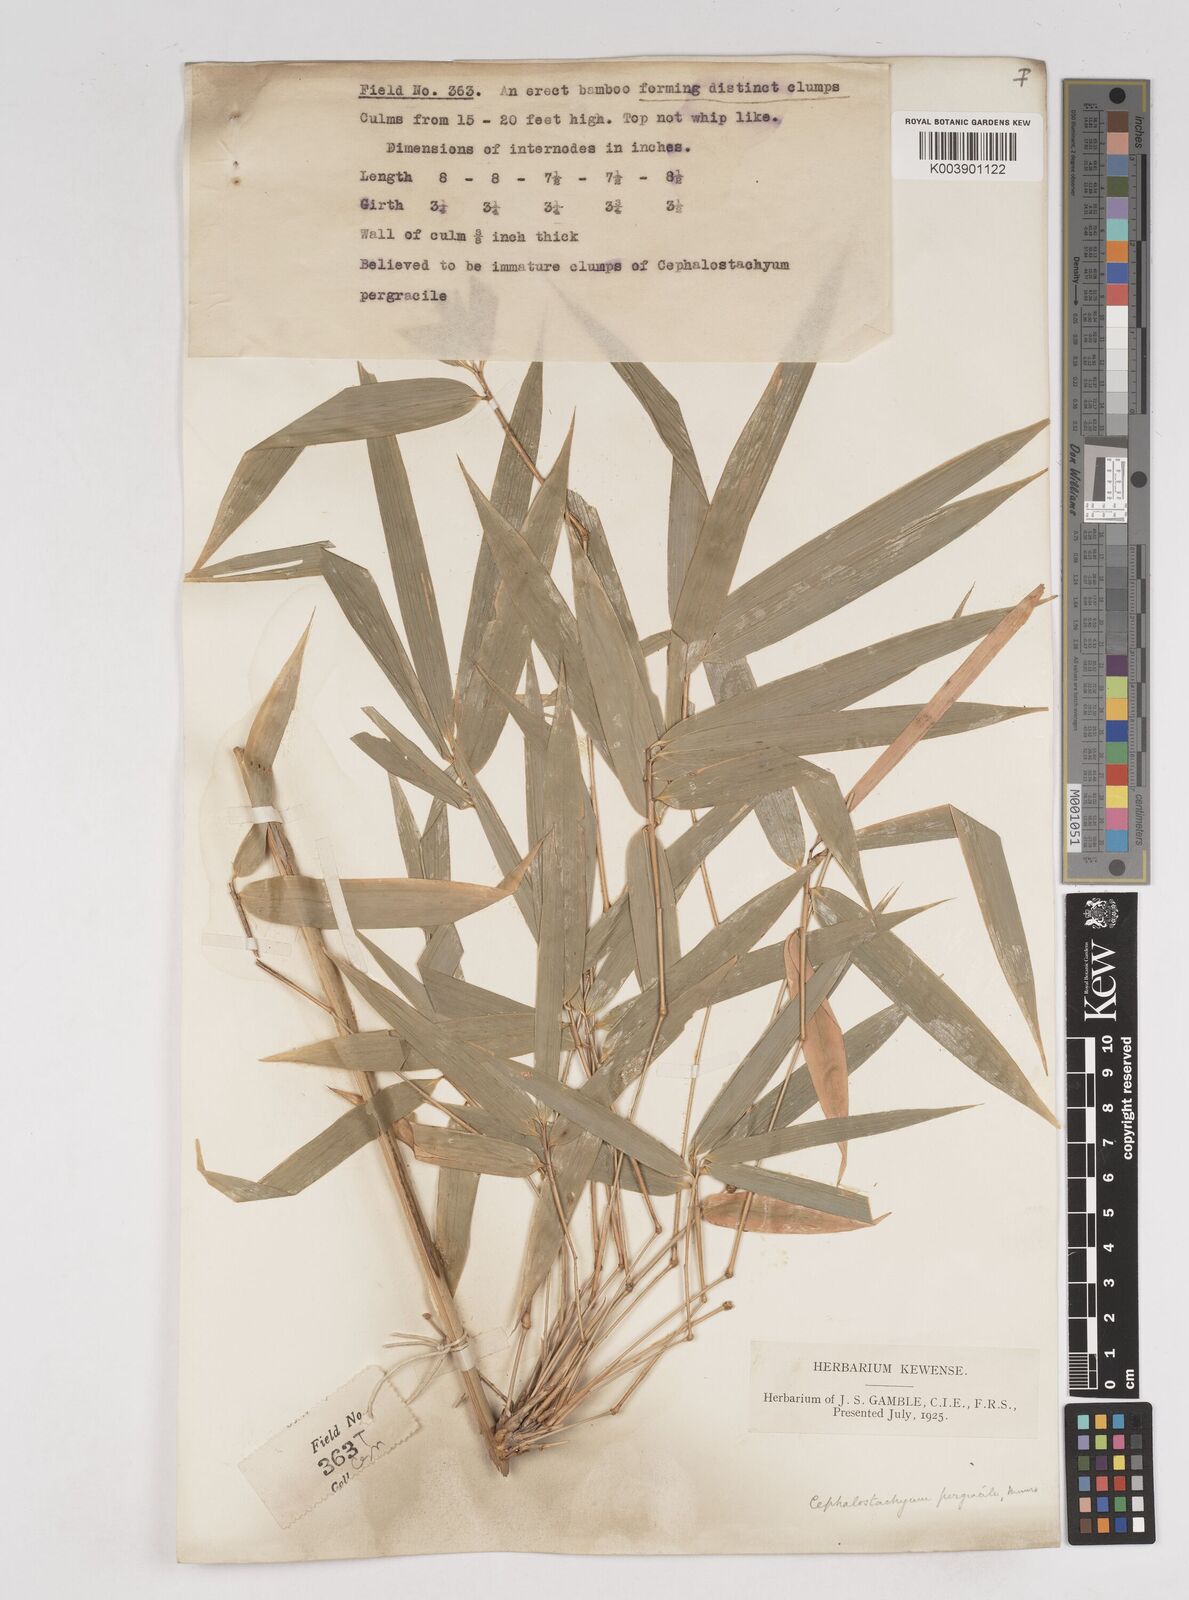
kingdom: Plantae
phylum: Tracheophyta
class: Liliopsida
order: Poales
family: Poaceae
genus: Schizostachyum
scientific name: Schizostachyum pergracile
